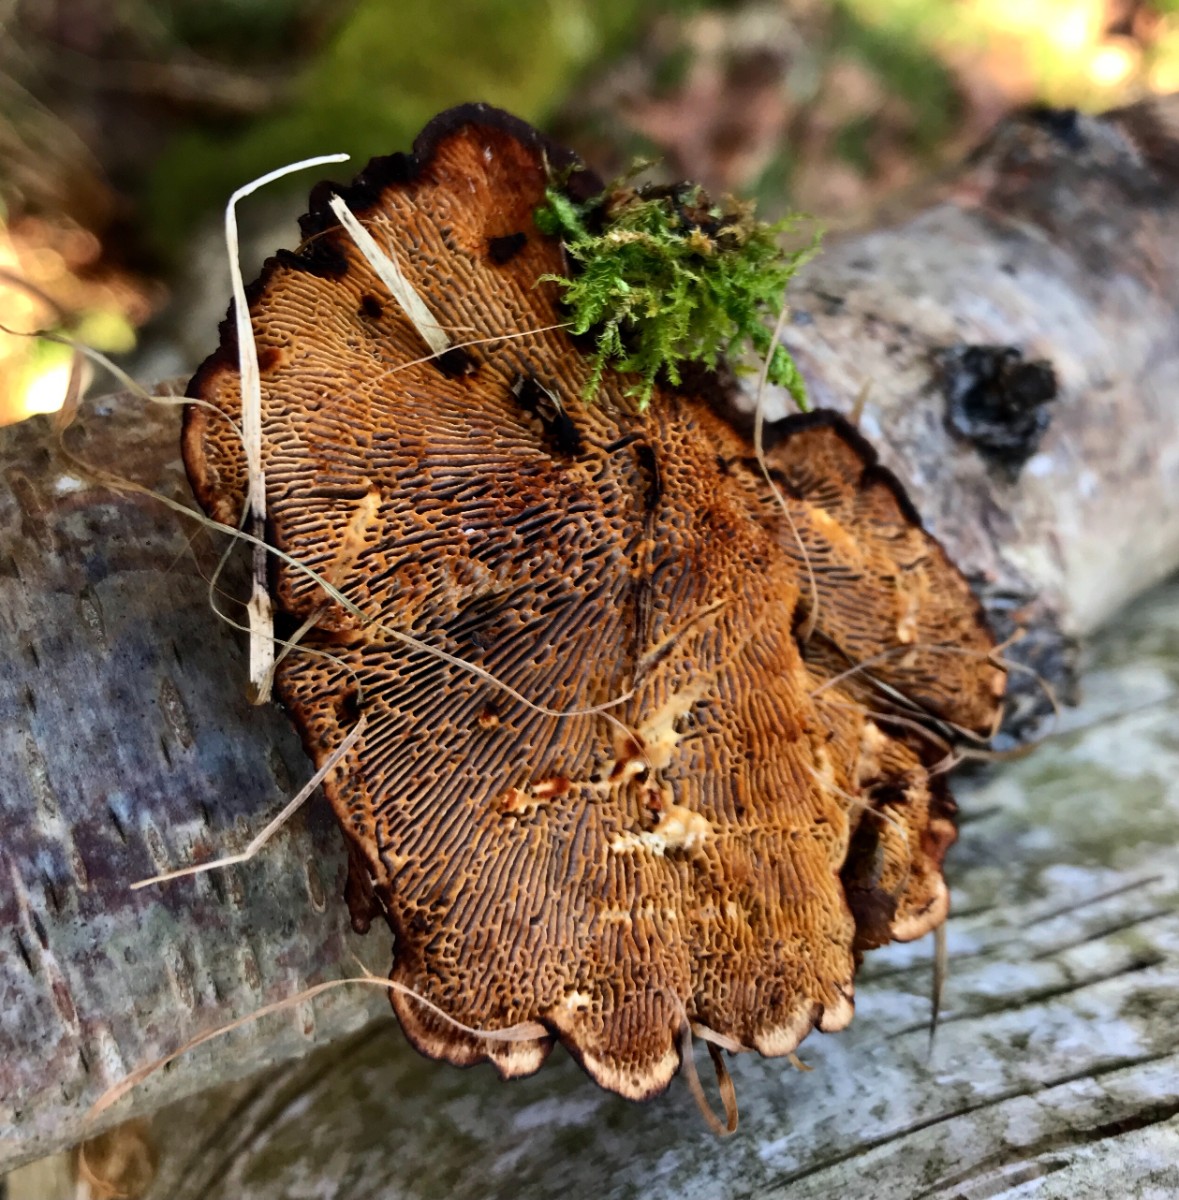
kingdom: Fungi
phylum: Basidiomycota
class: Agaricomycetes
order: Polyporales
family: Polyporaceae
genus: Daedaleopsis
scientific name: Daedaleopsis confragosa
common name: rødmende læderporesvamp
